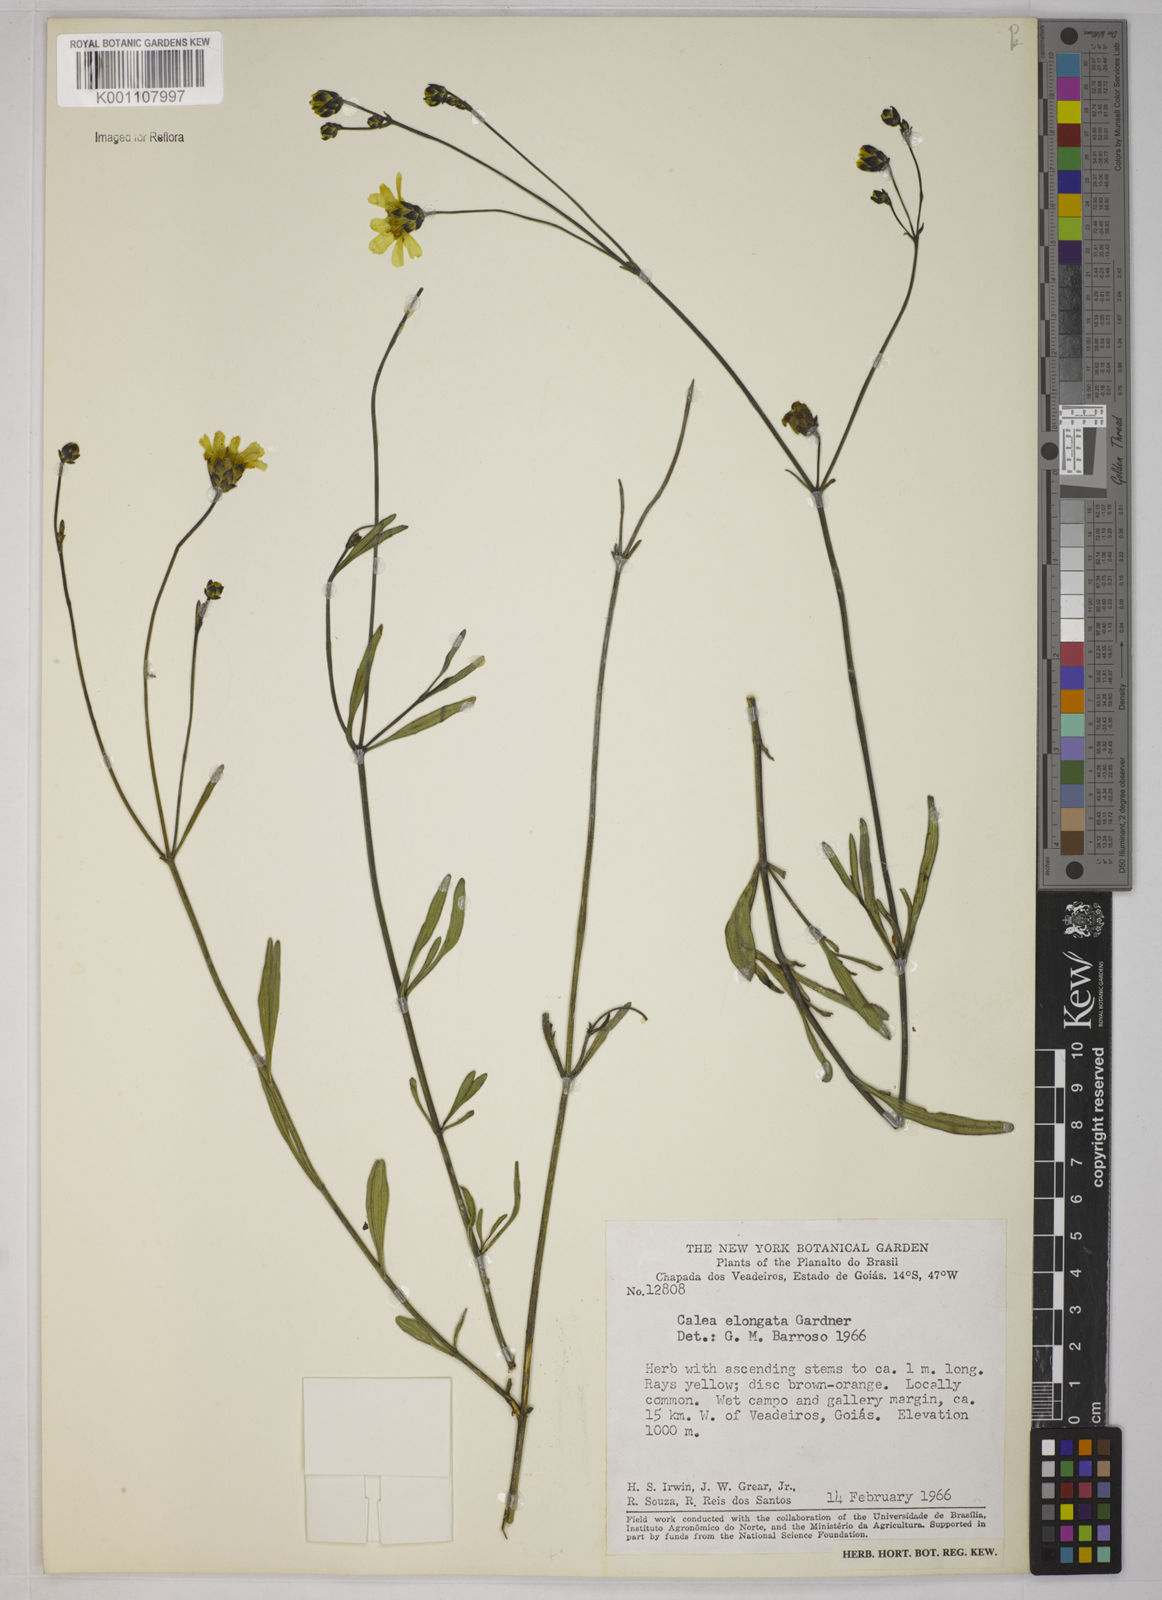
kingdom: Plantae
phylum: Tracheophyta
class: Magnoliopsida
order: Asterales
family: Asteraceae
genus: Calea
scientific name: Calea elongata
